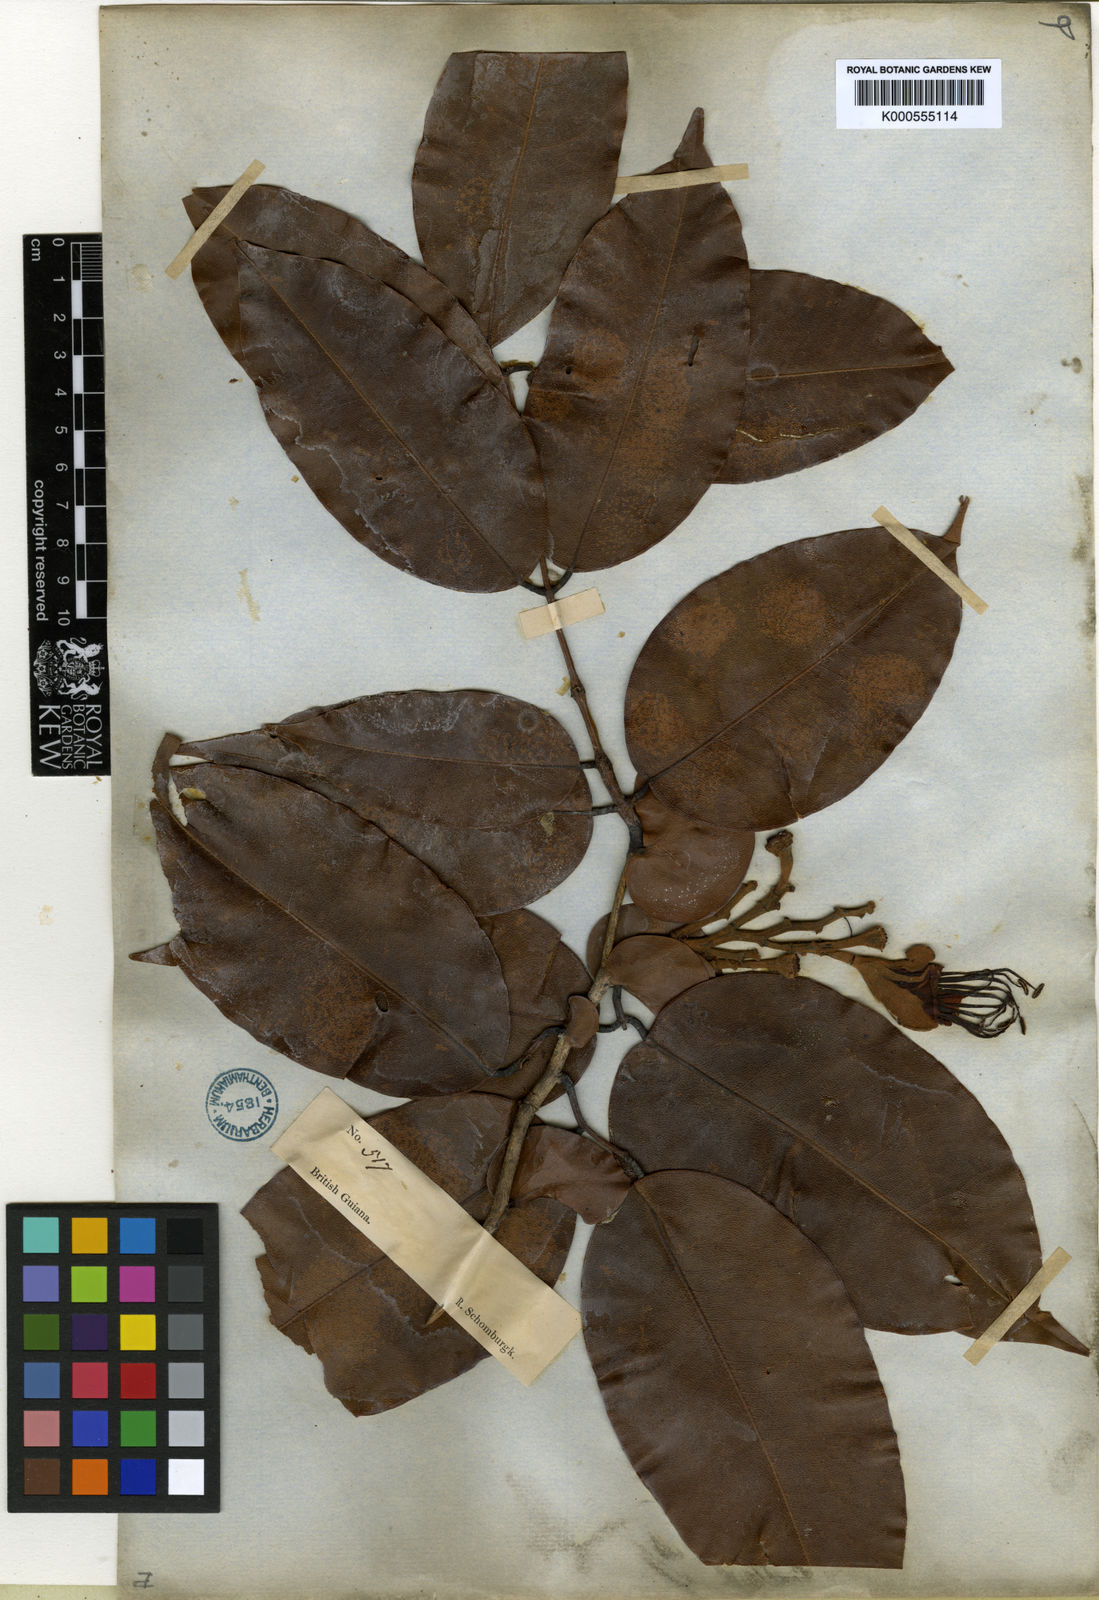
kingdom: Plantae
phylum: Tracheophyta
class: Magnoliopsida
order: Fabales
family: Fabaceae
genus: Eperua
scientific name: Eperua schomburgkiana
